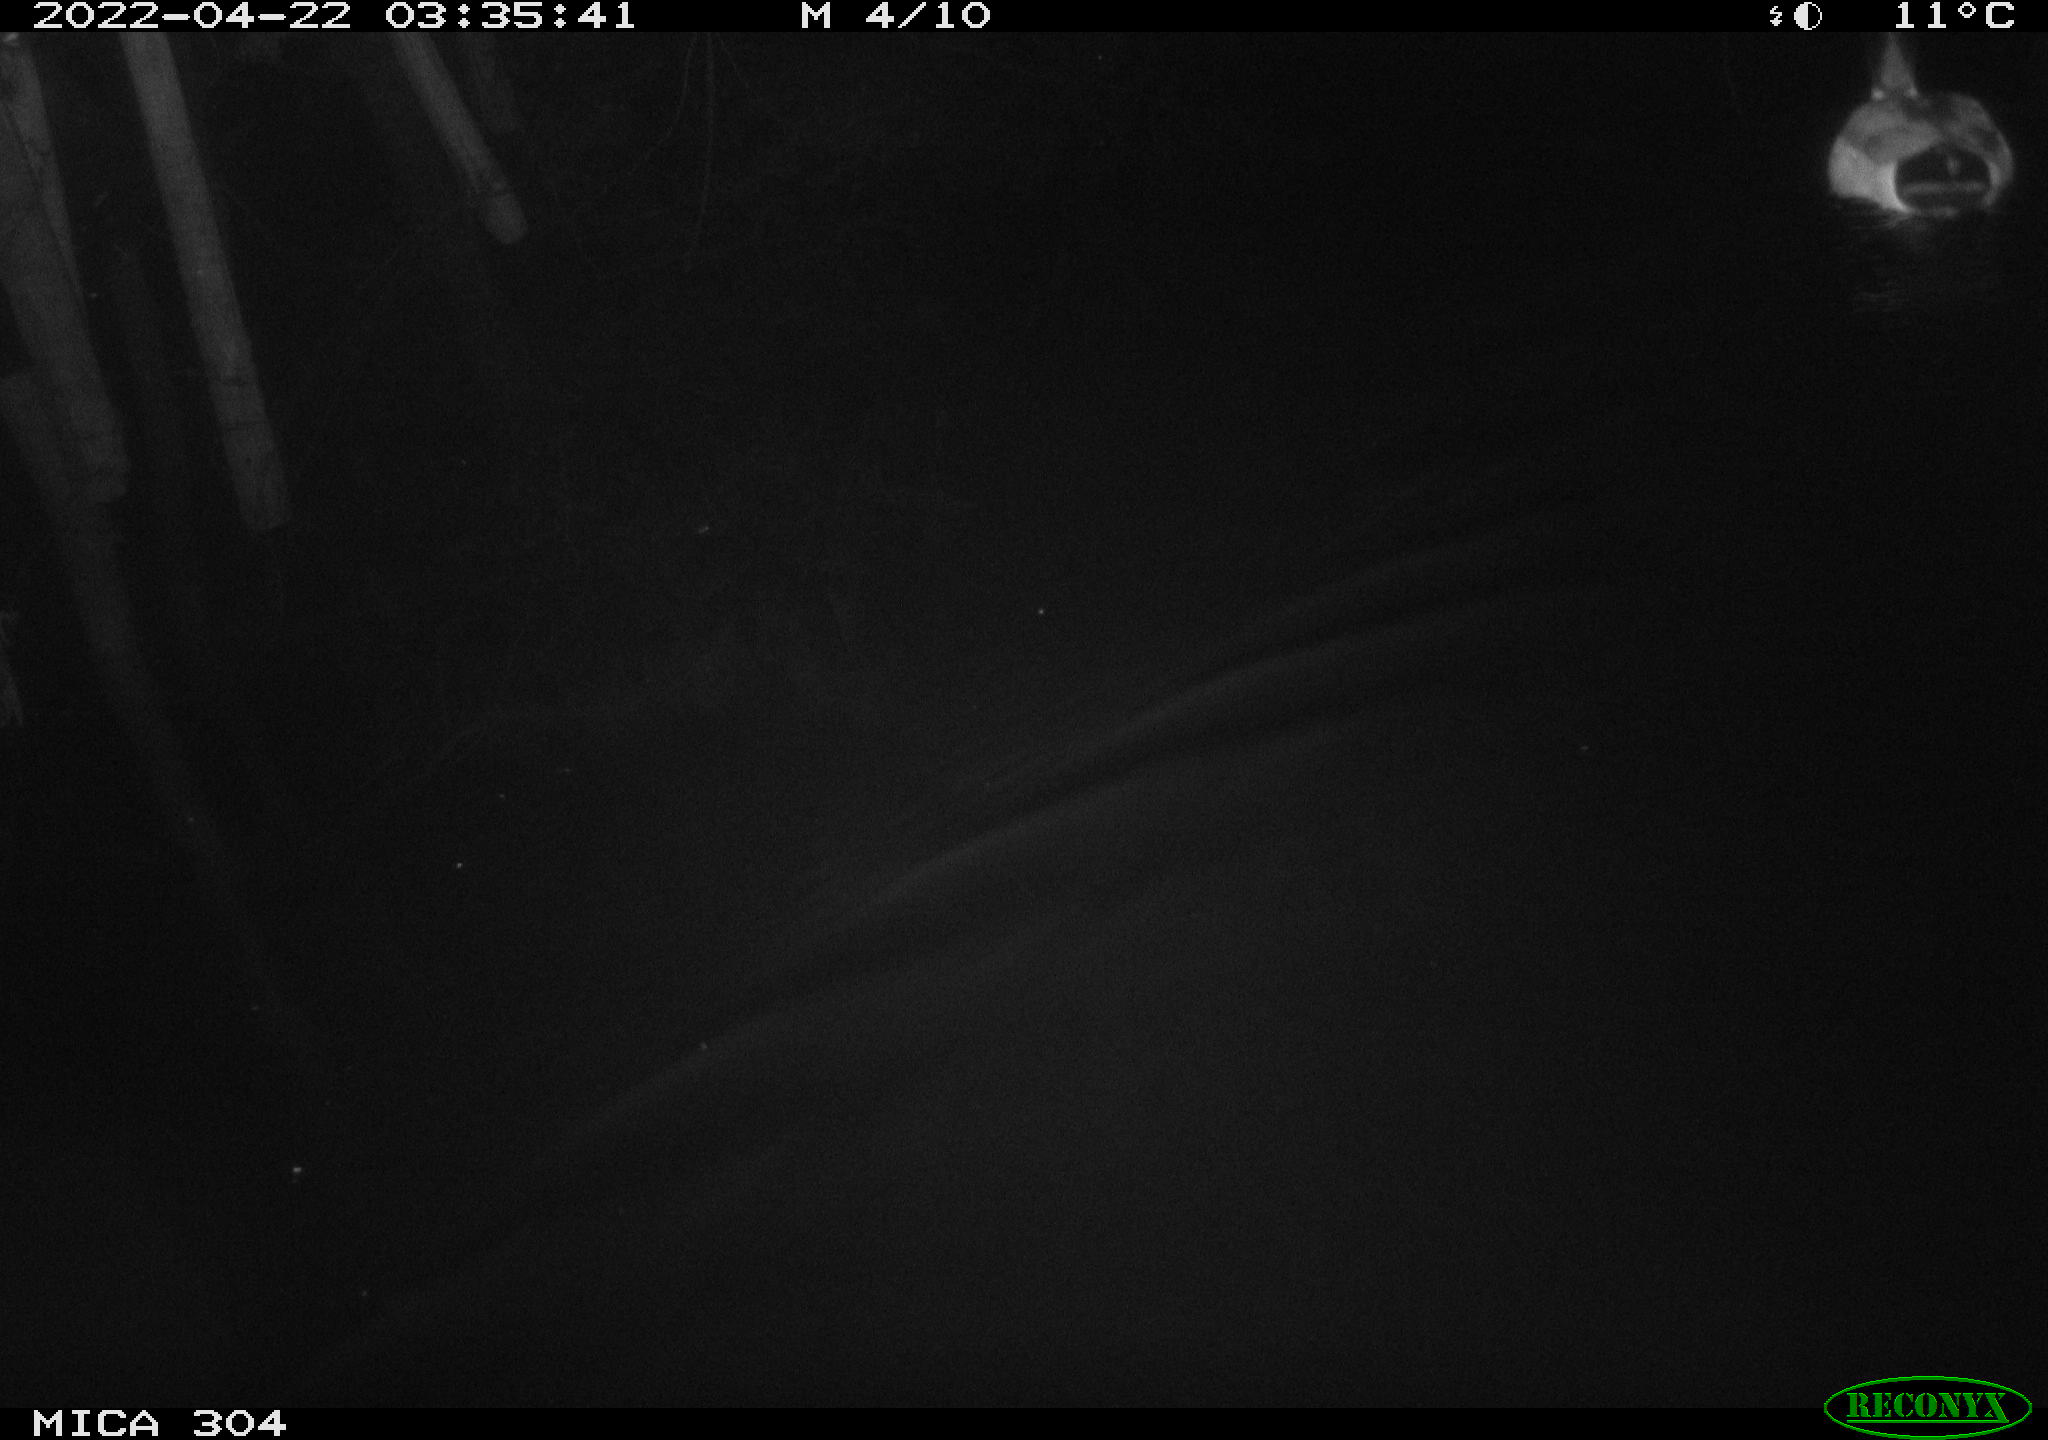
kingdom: Animalia
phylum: Chordata
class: Aves
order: Anseriformes
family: Anatidae
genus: Anas
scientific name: Anas platyrhynchos
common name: Mallard
